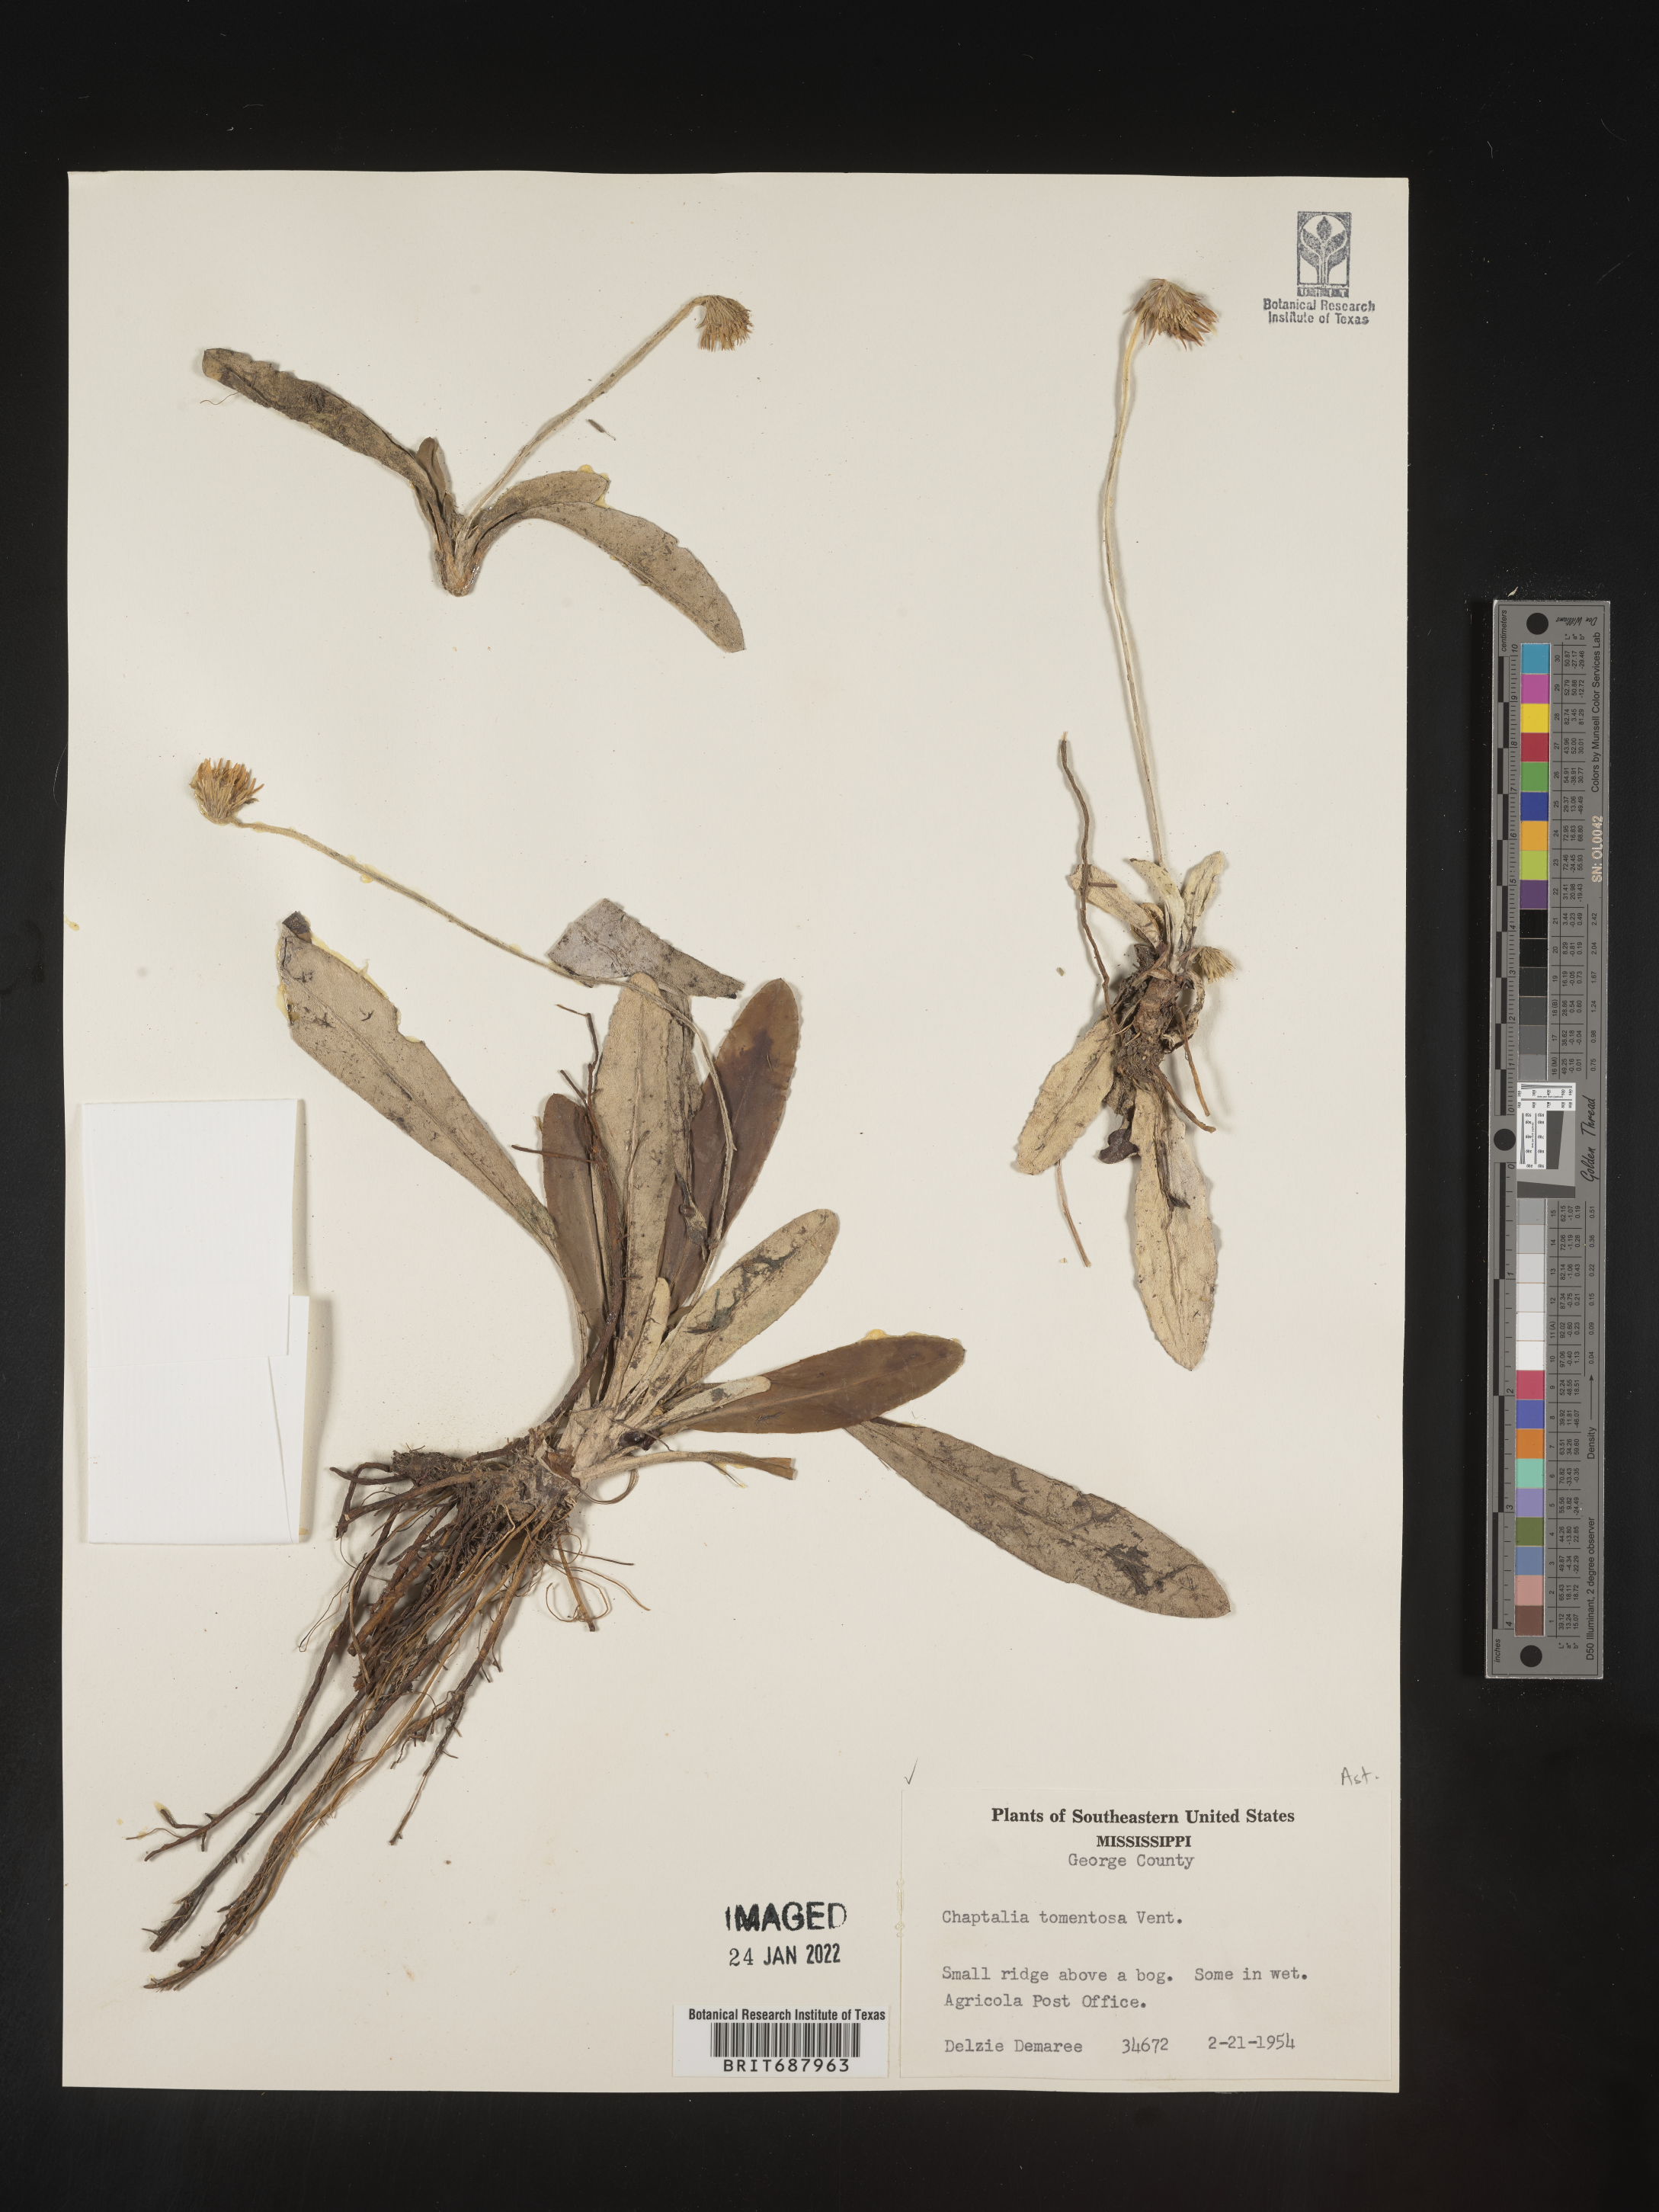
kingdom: Plantae
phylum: Tracheophyta
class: Magnoliopsida
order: Asterales
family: Asteraceae
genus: Chaptalia
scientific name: Chaptalia tomentosa
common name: Woolly sunbonnet
